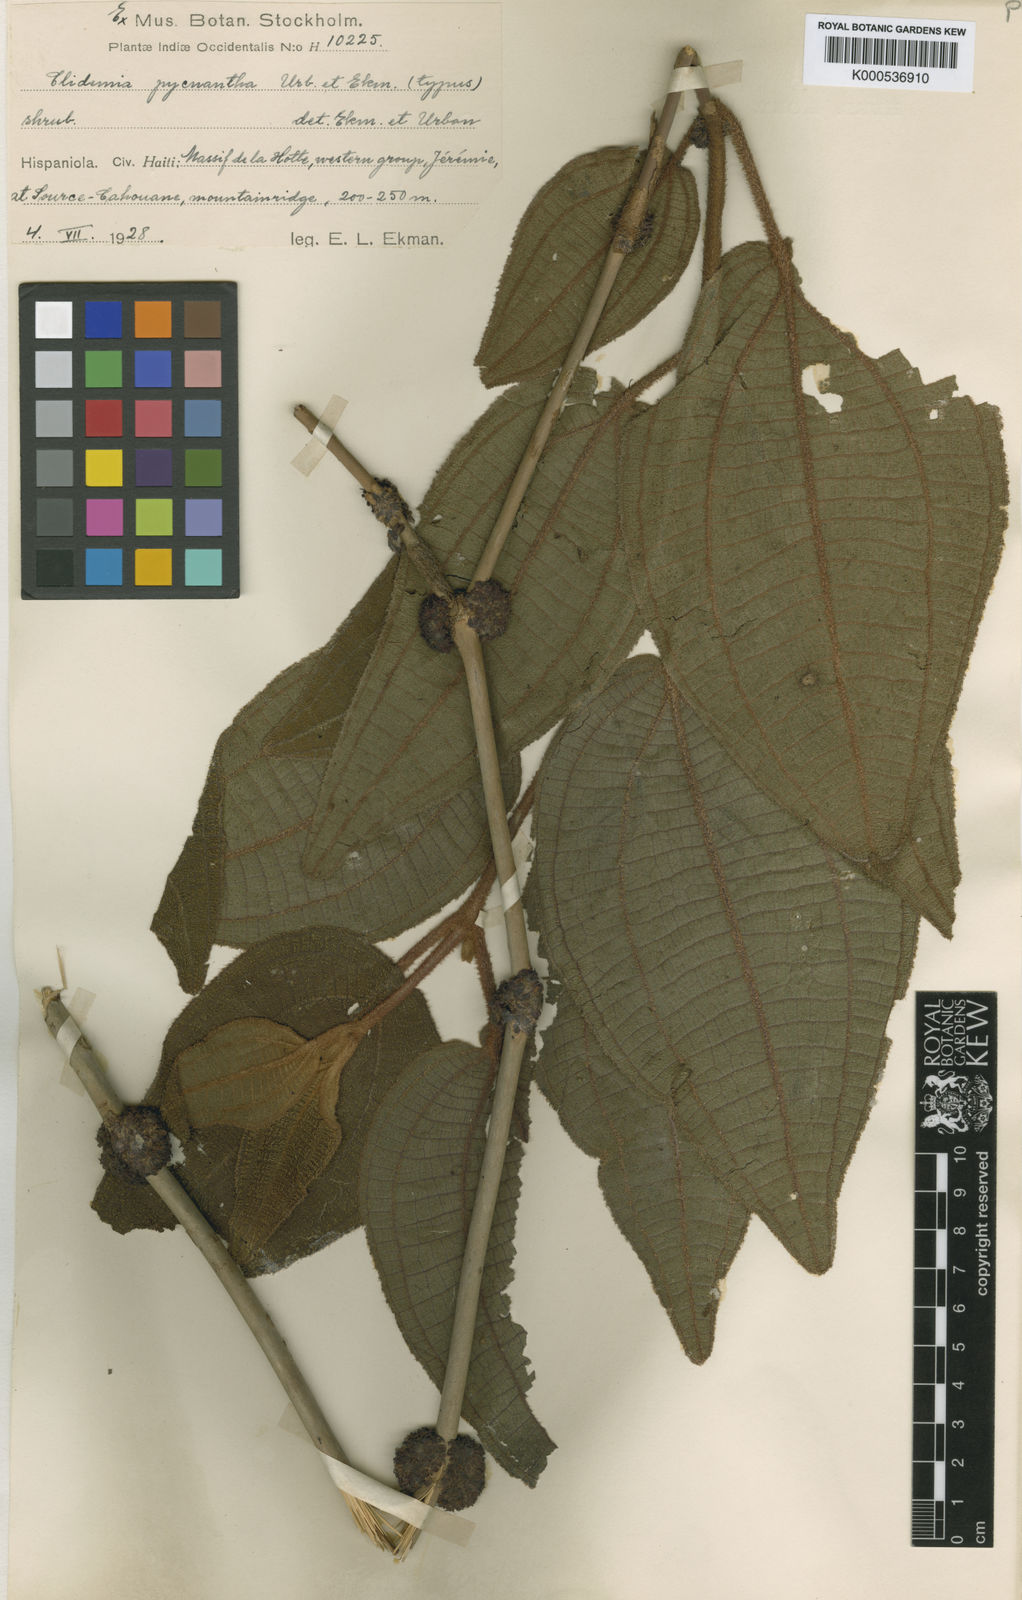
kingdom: Plantae
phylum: Tracheophyta
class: Magnoliopsida
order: Myrtales
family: Melastomataceae
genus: Miconia
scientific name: Miconia pycnantha
